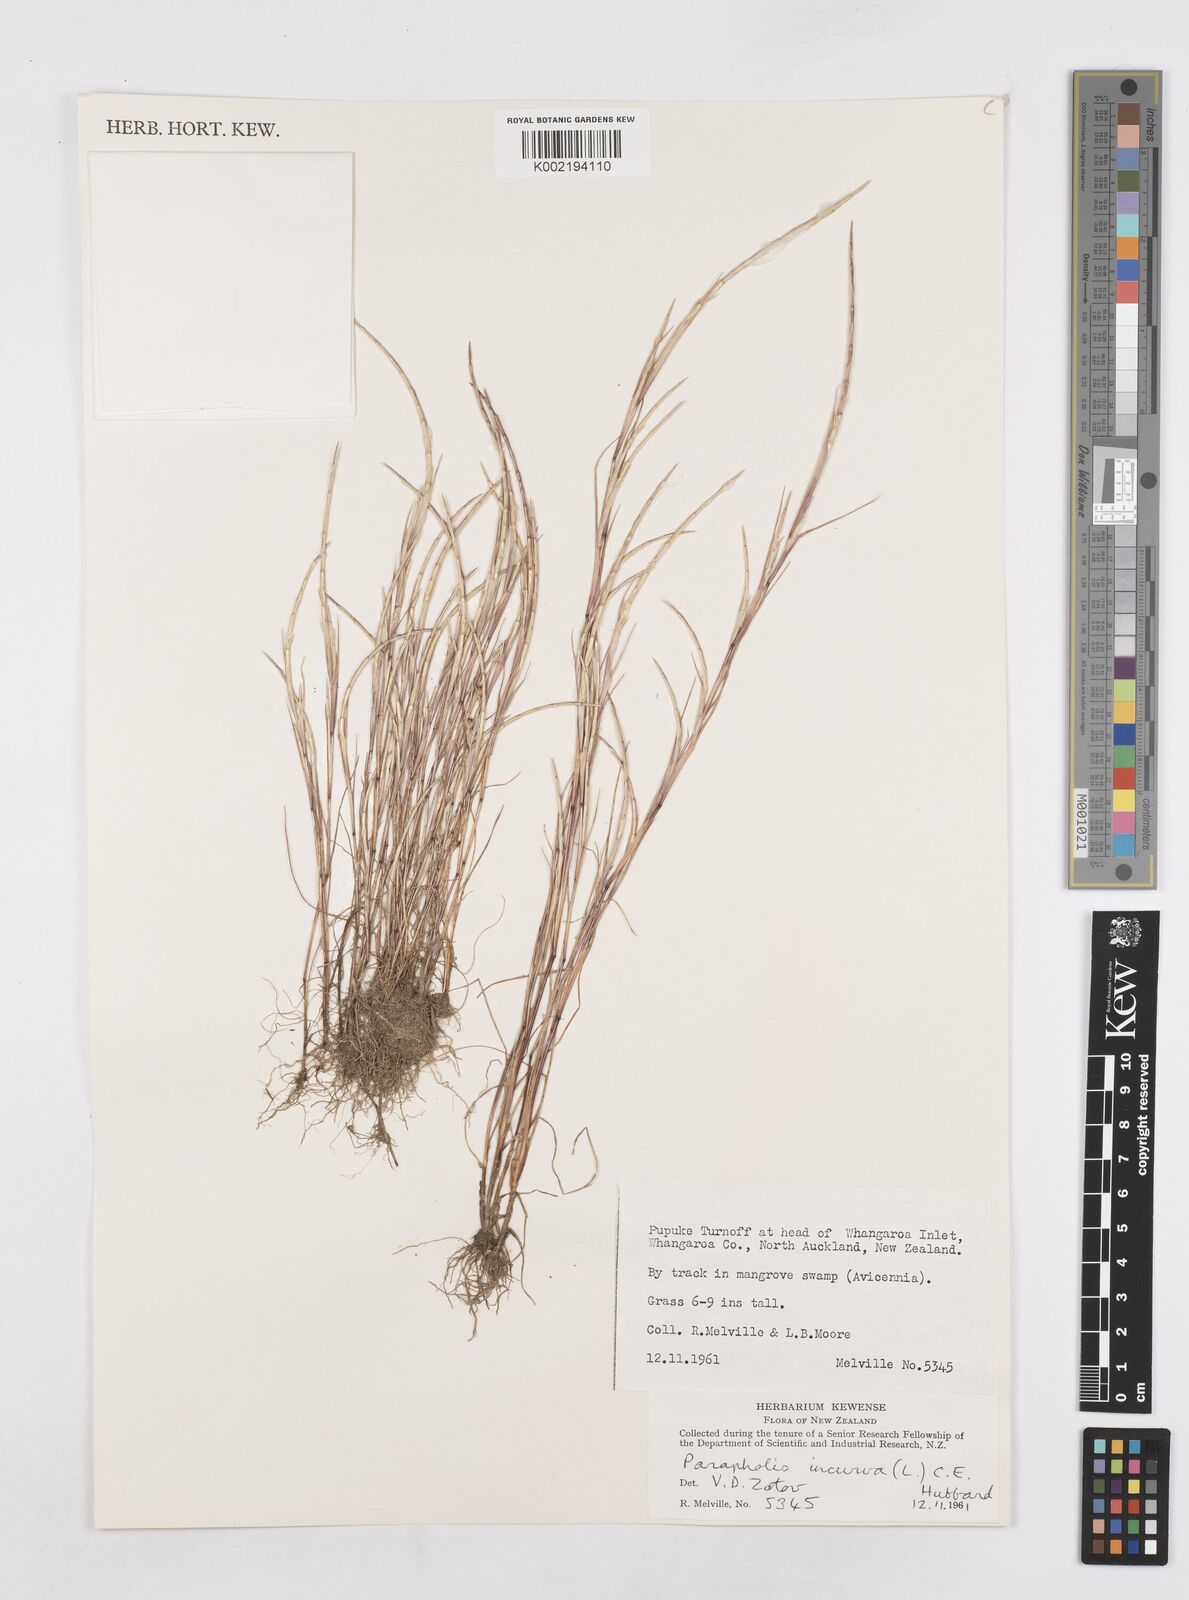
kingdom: Plantae
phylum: Tracheophyta
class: Liliopsida
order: Poales
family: Poaceae
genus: Parapholis
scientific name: Parapholis incurva
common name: Curved sicklegrass
